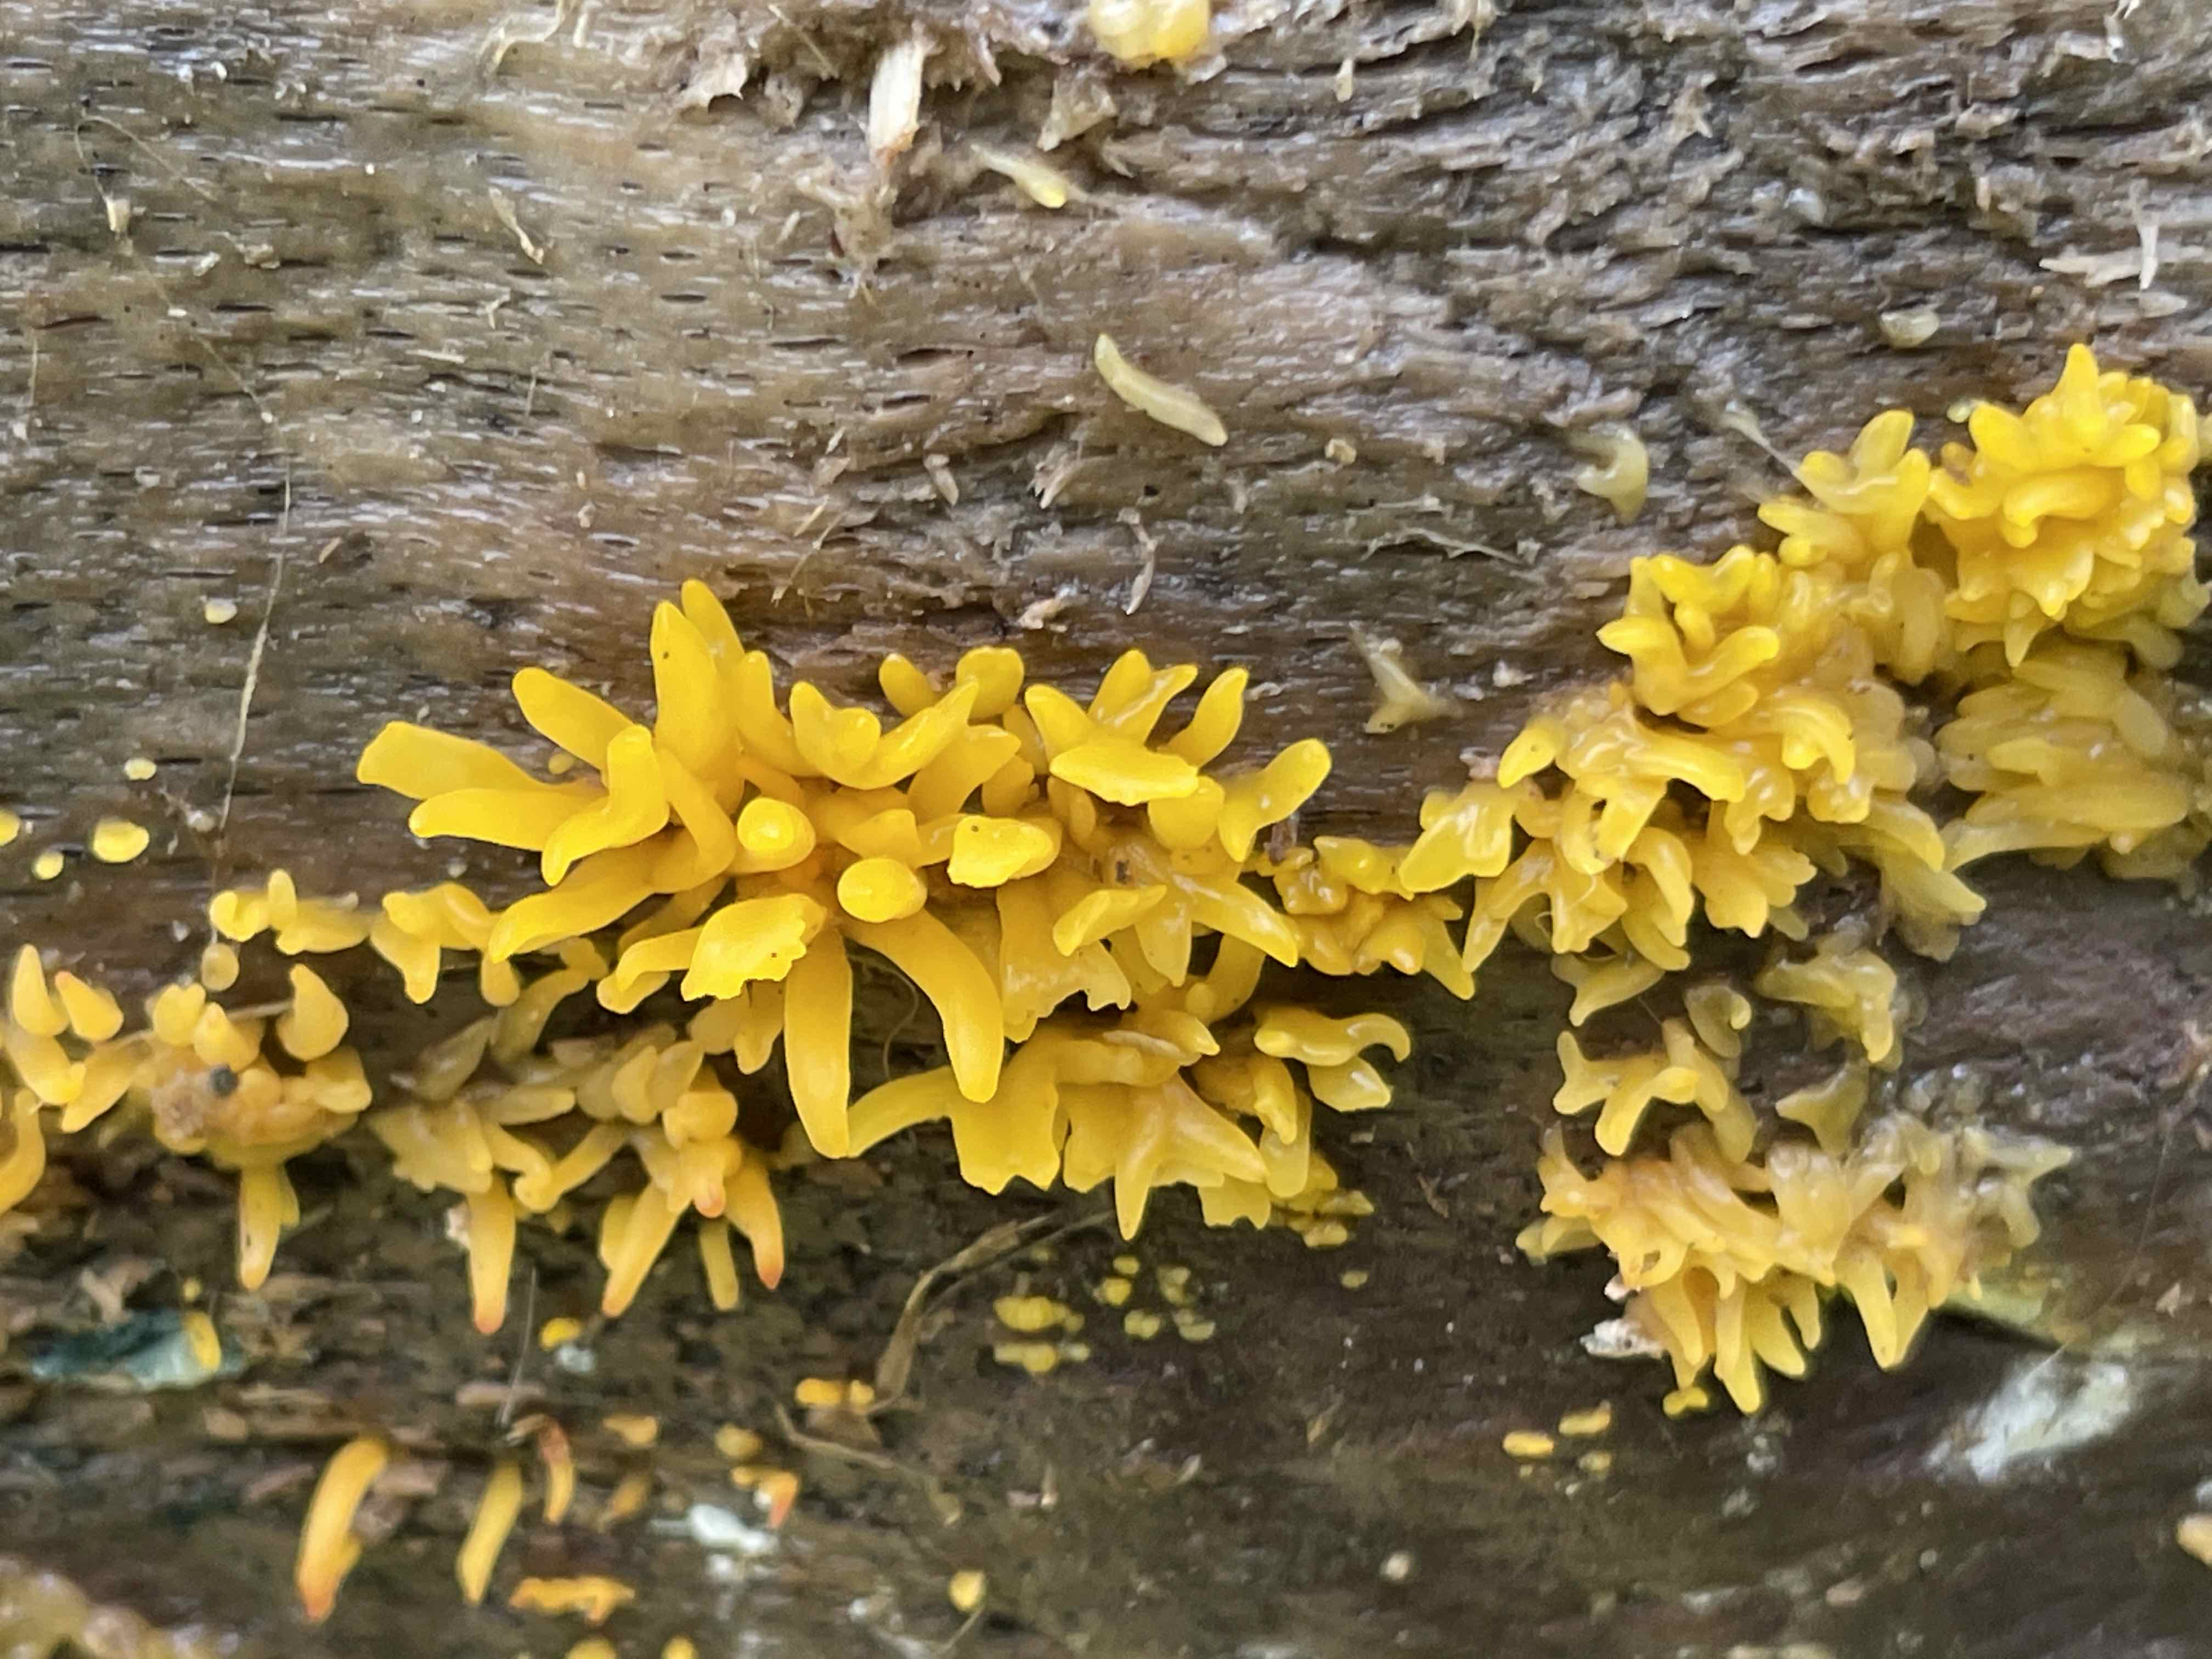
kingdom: Fungi
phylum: Basidiomycota
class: Dacrymycetes
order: Dacrymycetales
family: Dacrymycetaceae
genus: Calocera
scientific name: Calocera cornea
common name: liden guldgaffel
